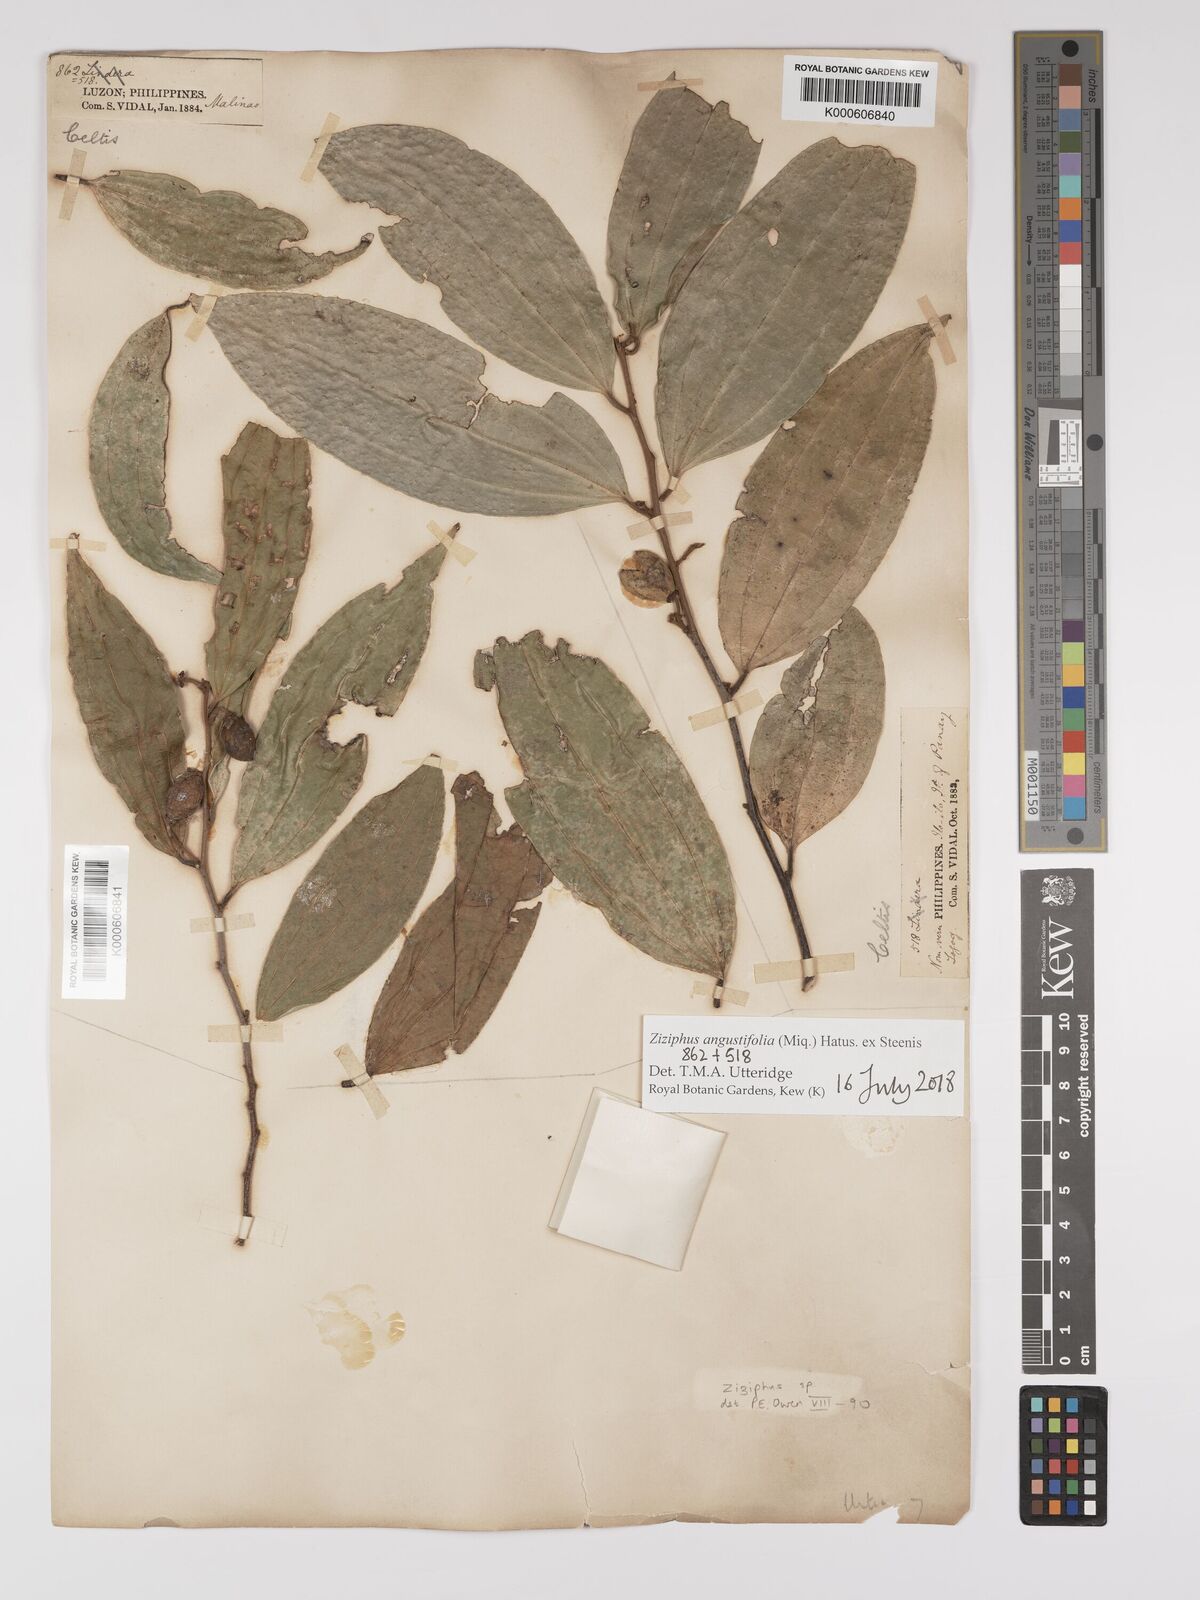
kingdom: Plantae
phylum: Tracheophyta
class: Magnoliopsida
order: Rosales
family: Rhamnaceae
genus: Ziziphus
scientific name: Ziziphus angustifolia
